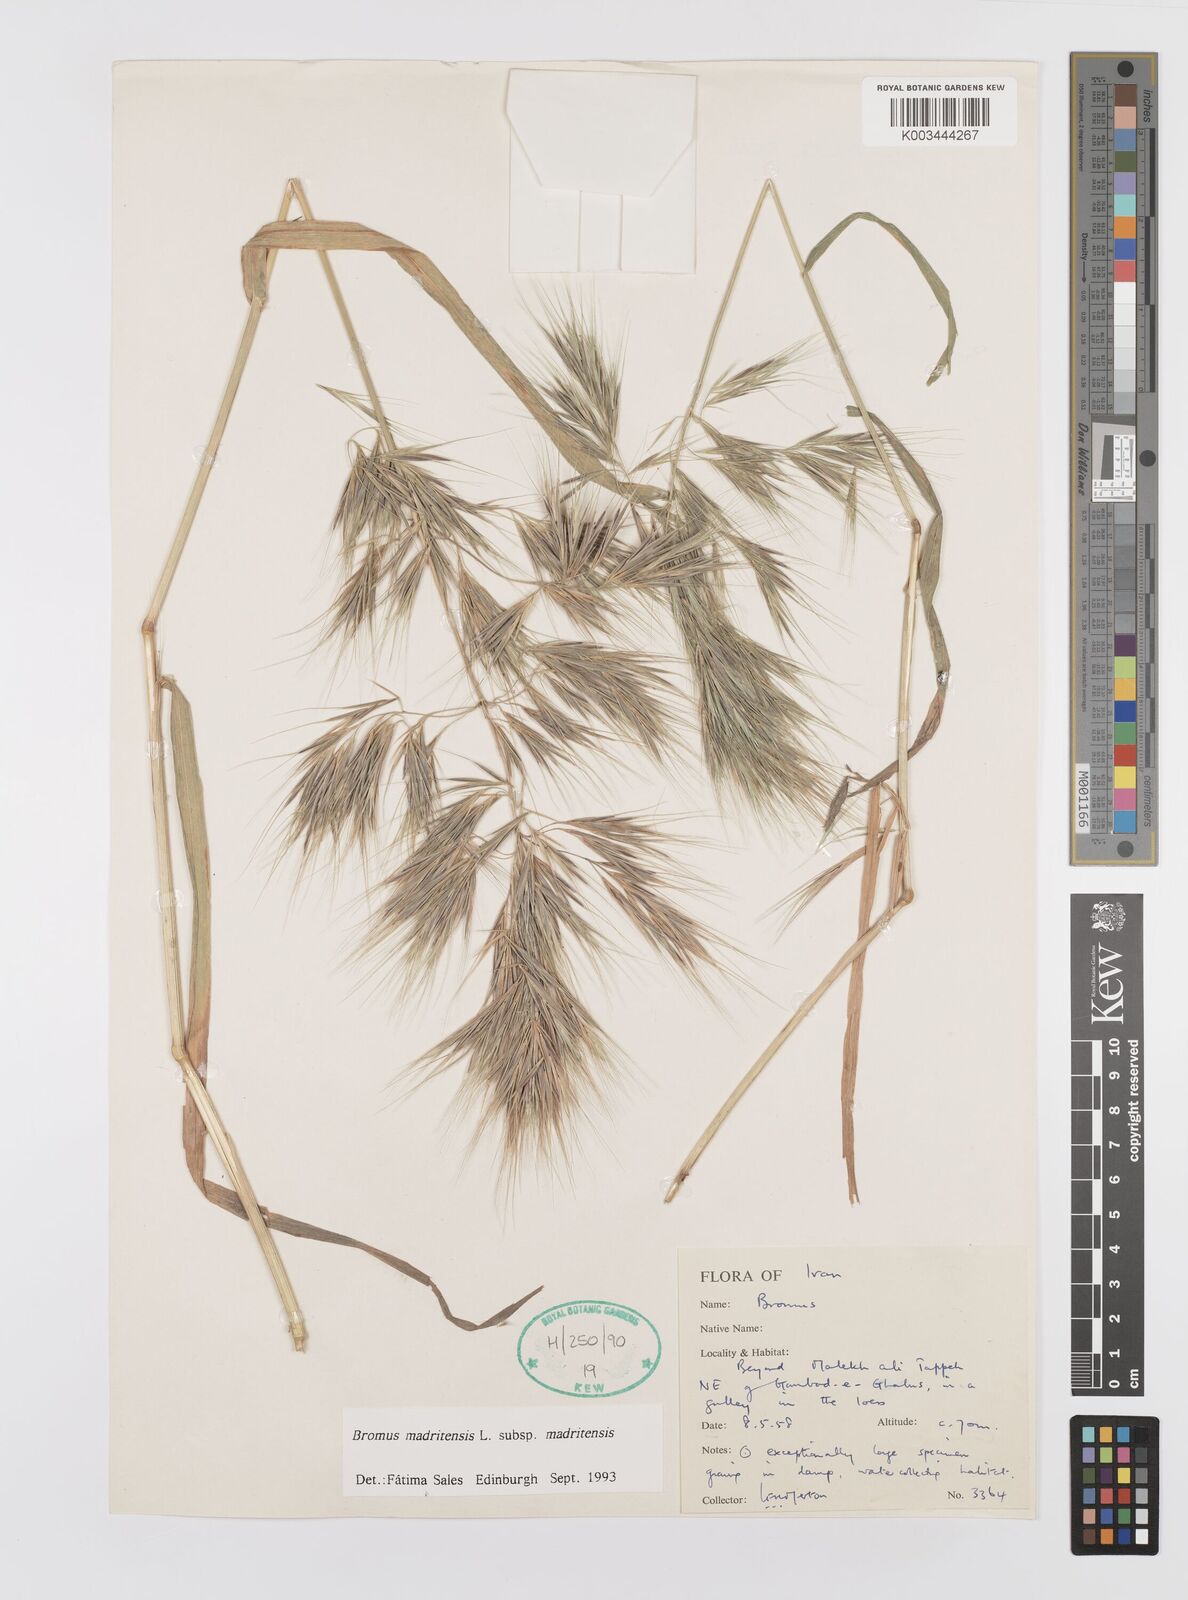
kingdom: Plantae
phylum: Tracheophyta
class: Liliopsida
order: Poales
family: Poaceae
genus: Bromus
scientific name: Bromus madritensis
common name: Compact brome
